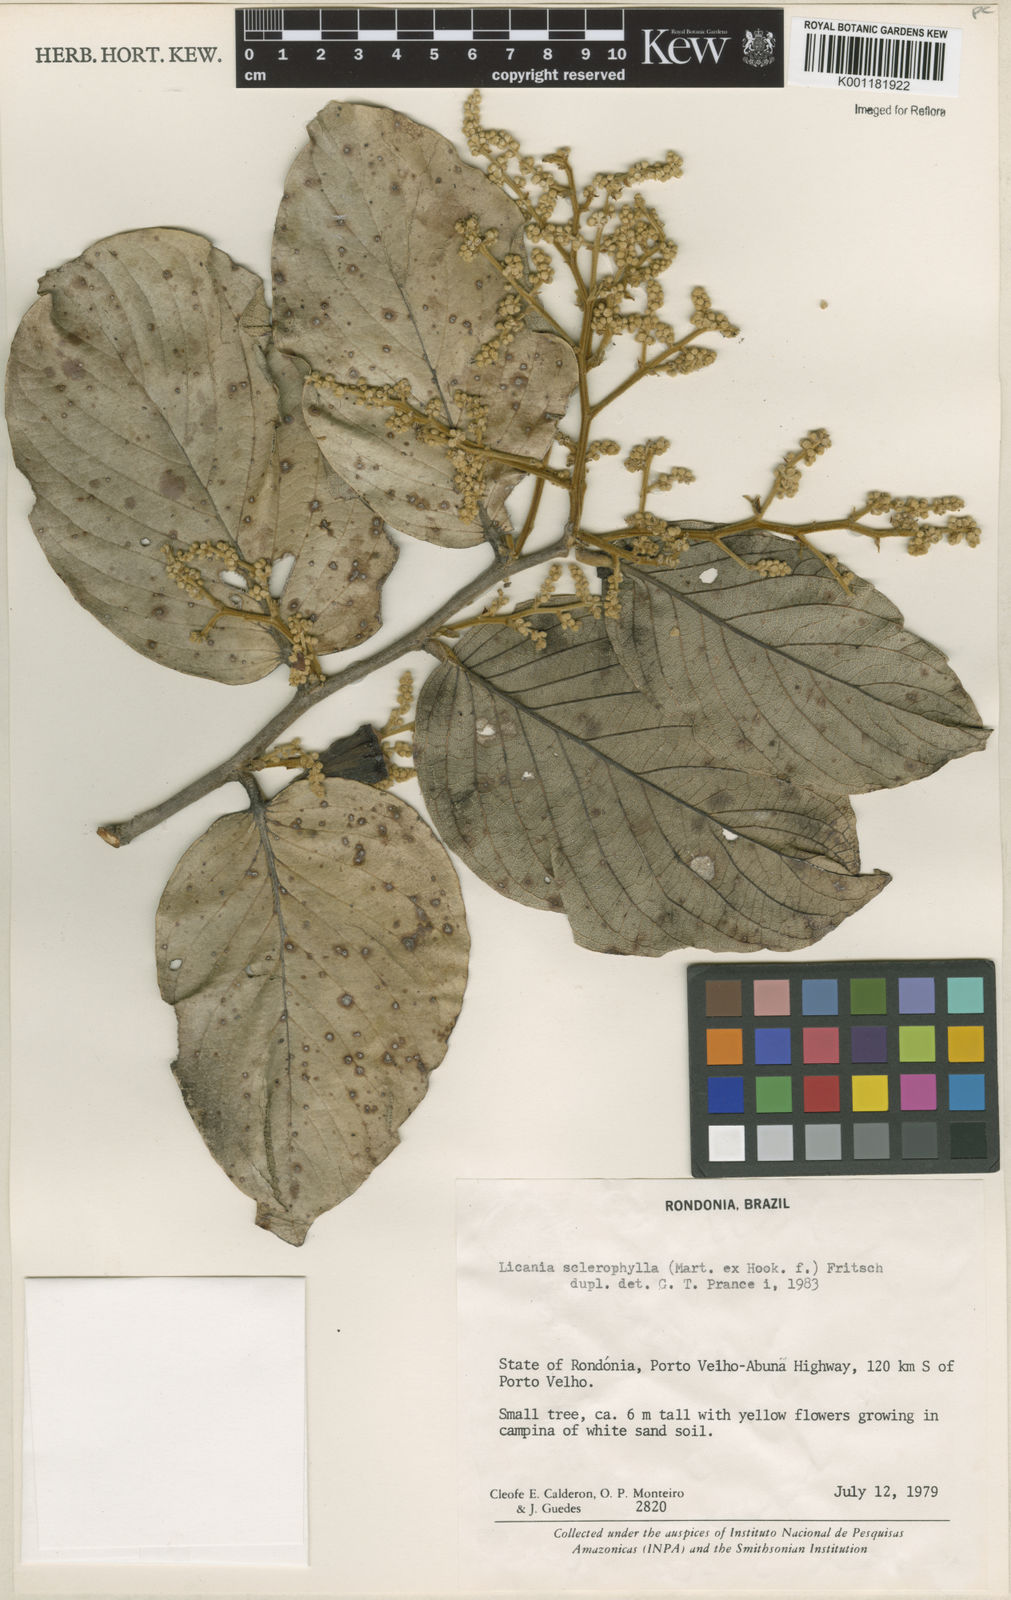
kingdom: Plantae
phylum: Tracheophyta
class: Magnoliopsida
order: Malpighiales
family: Chrysobalanaceae
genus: Leptobalanus
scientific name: Leptobalanus sclerophyllus
